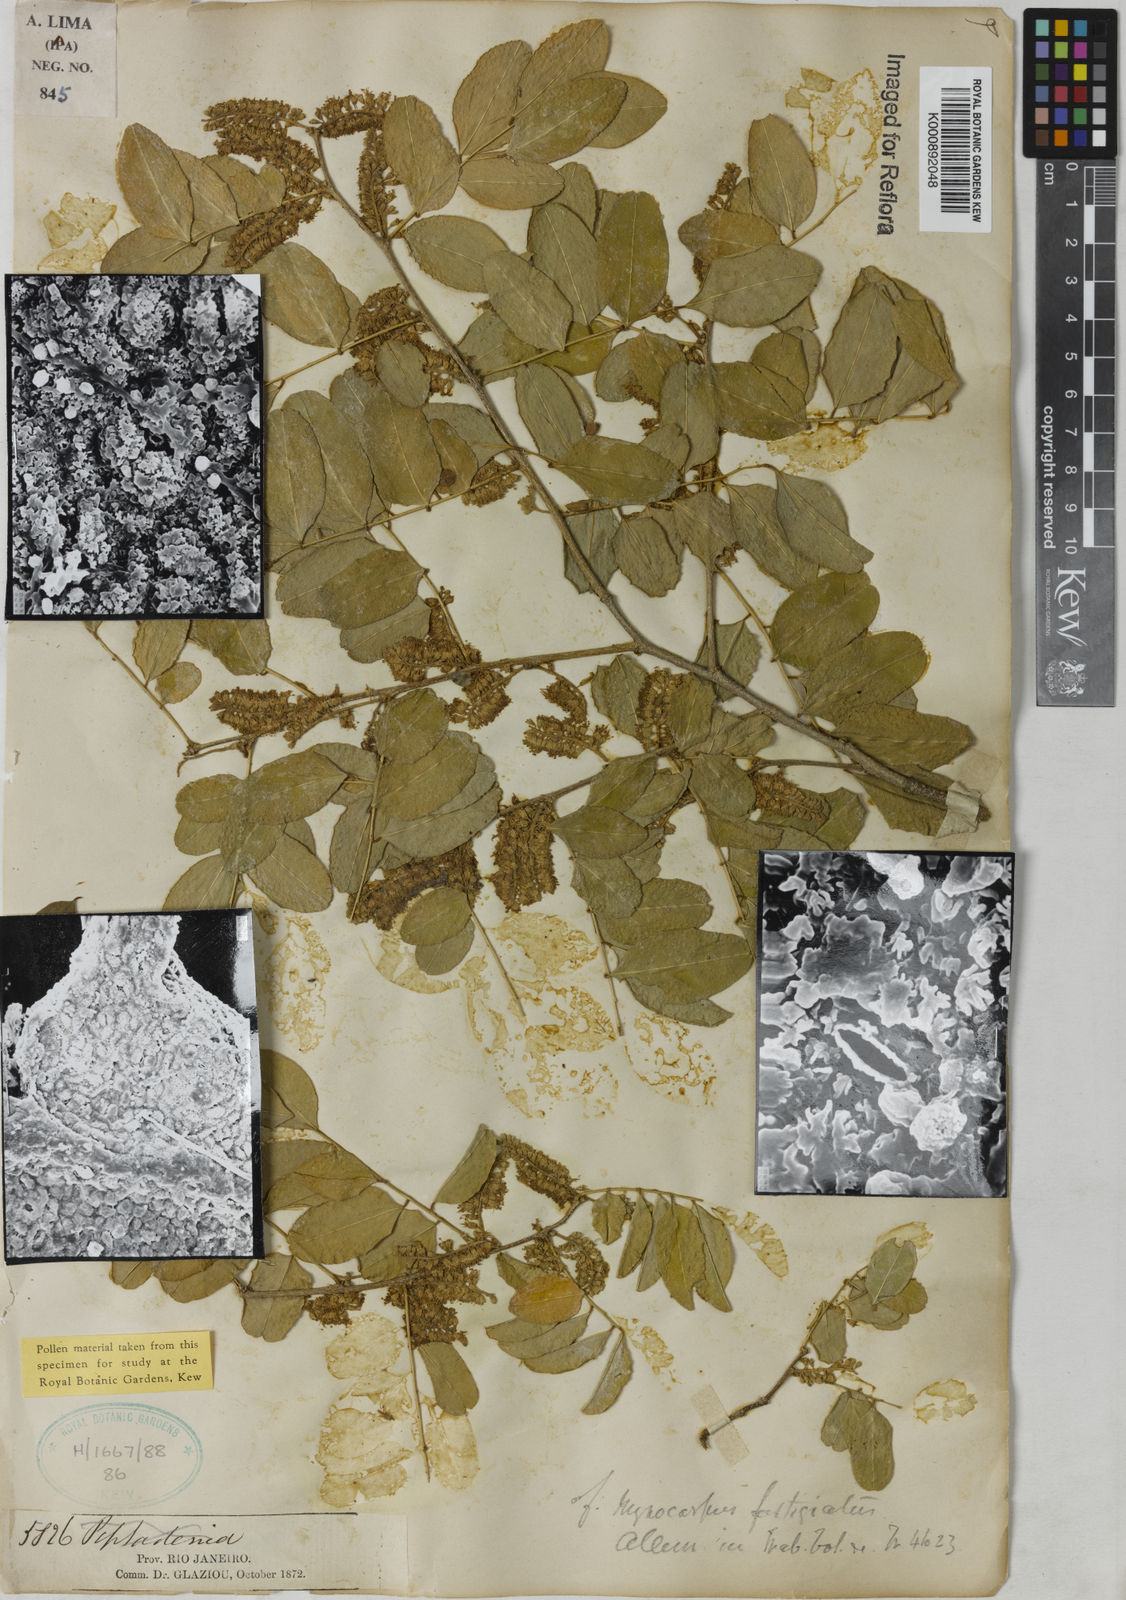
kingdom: Plantae
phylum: Tracheophyta
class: Magnoliopsida
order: Fabales
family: Fabaceae
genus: Myrocarpus
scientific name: Myrocarpus
